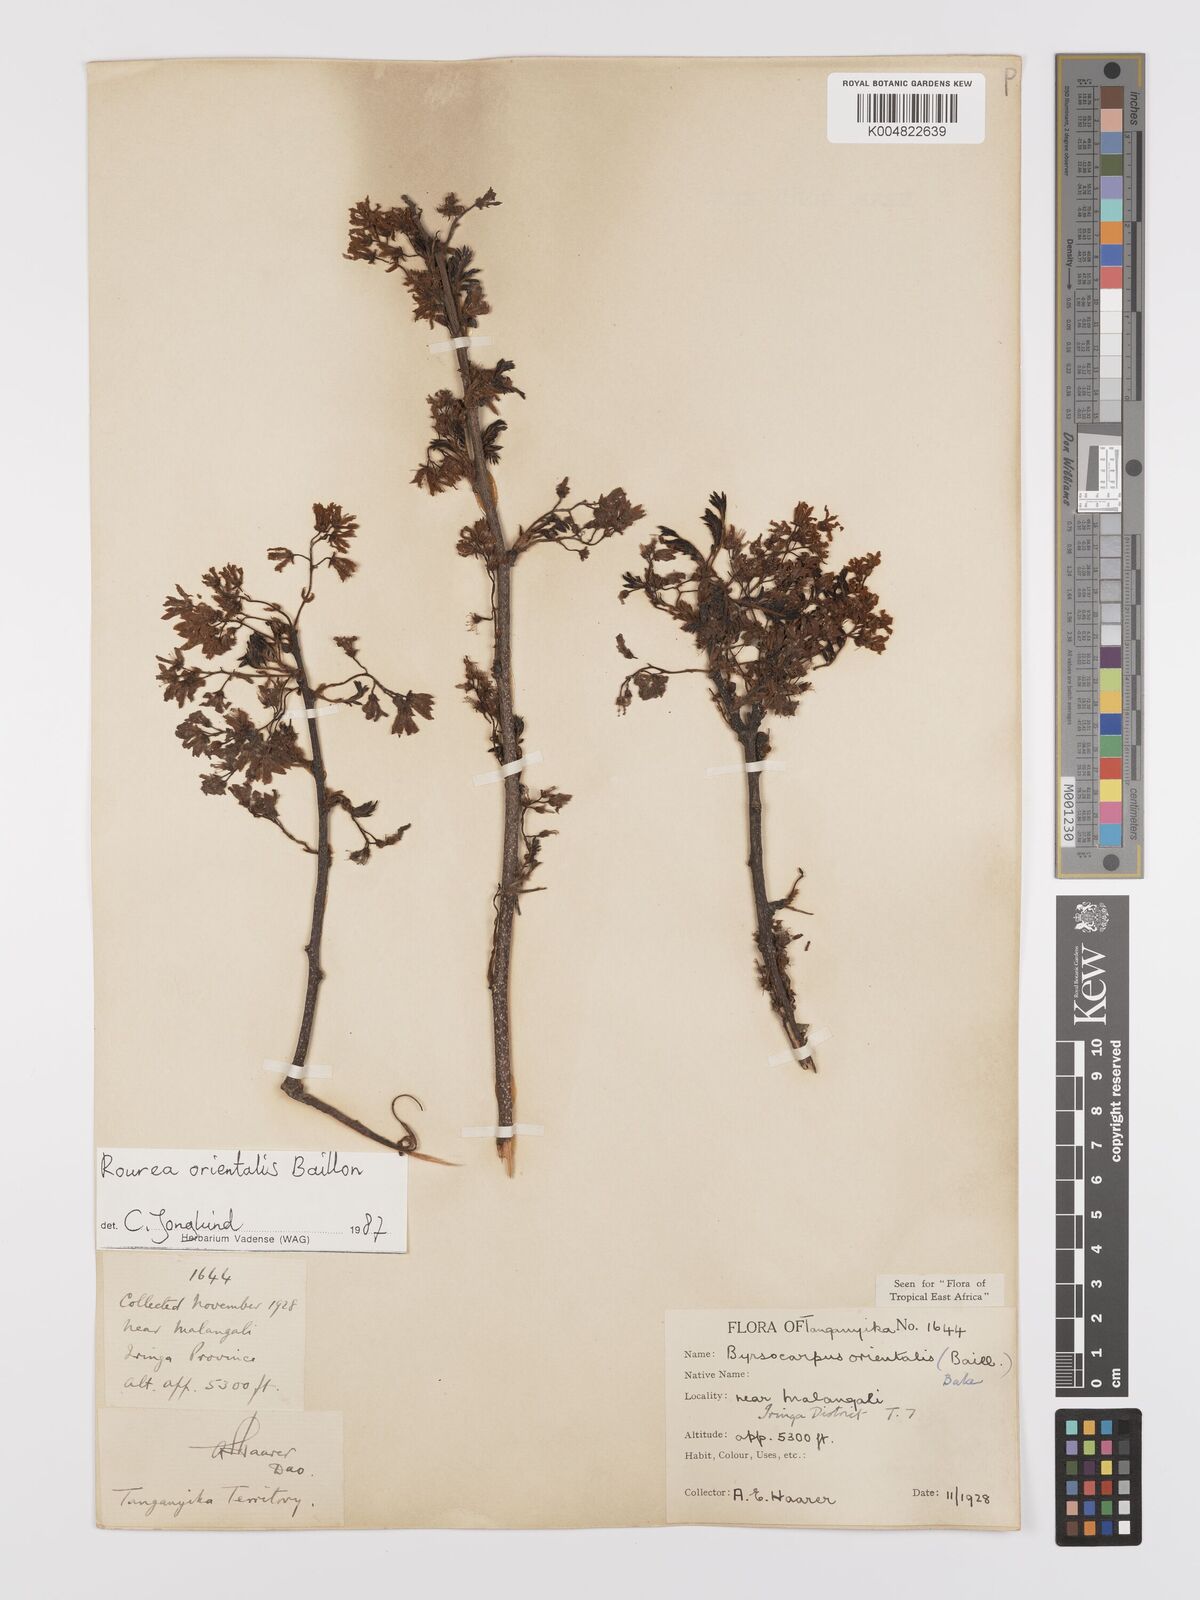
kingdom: Plantae
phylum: Tracheophyta
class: Magnoliopsida
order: Oxalidales
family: Connaraceae
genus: Rourea
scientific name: Rourea orientalis
